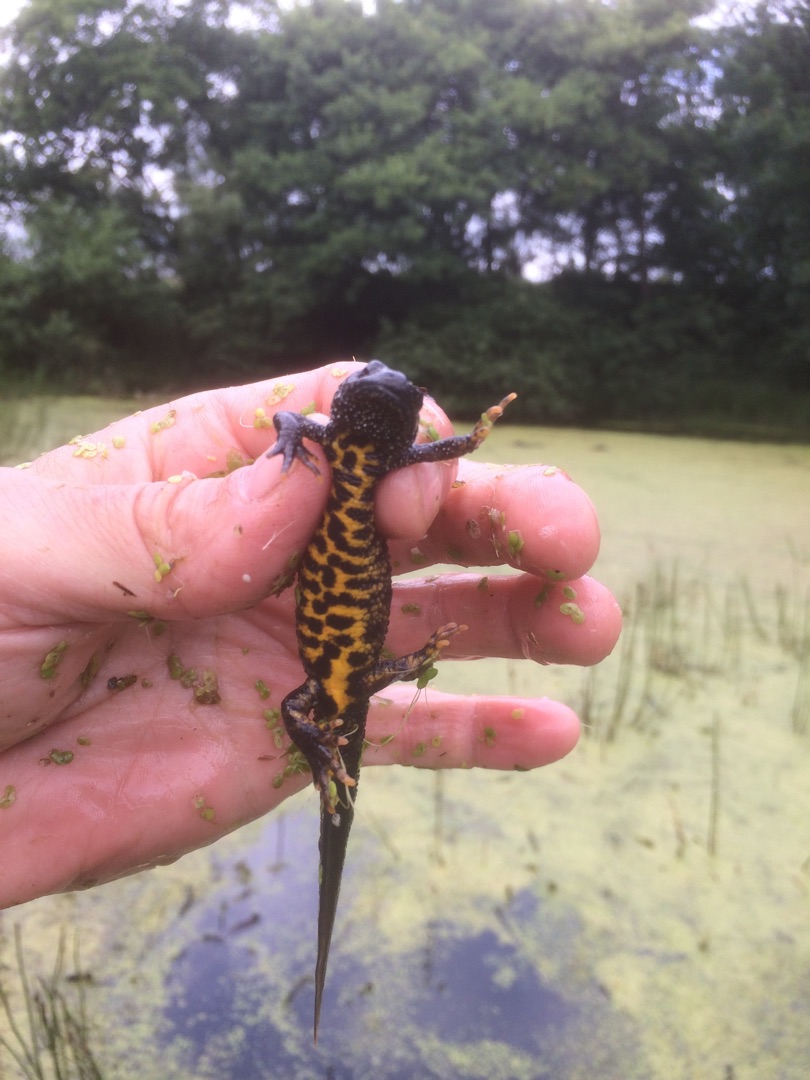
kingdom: Animalia
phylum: Chordata
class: Amphibia
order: Caudata
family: Salamandridae
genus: Triturus
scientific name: Triturus cristatus
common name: Stor vandsalamander
